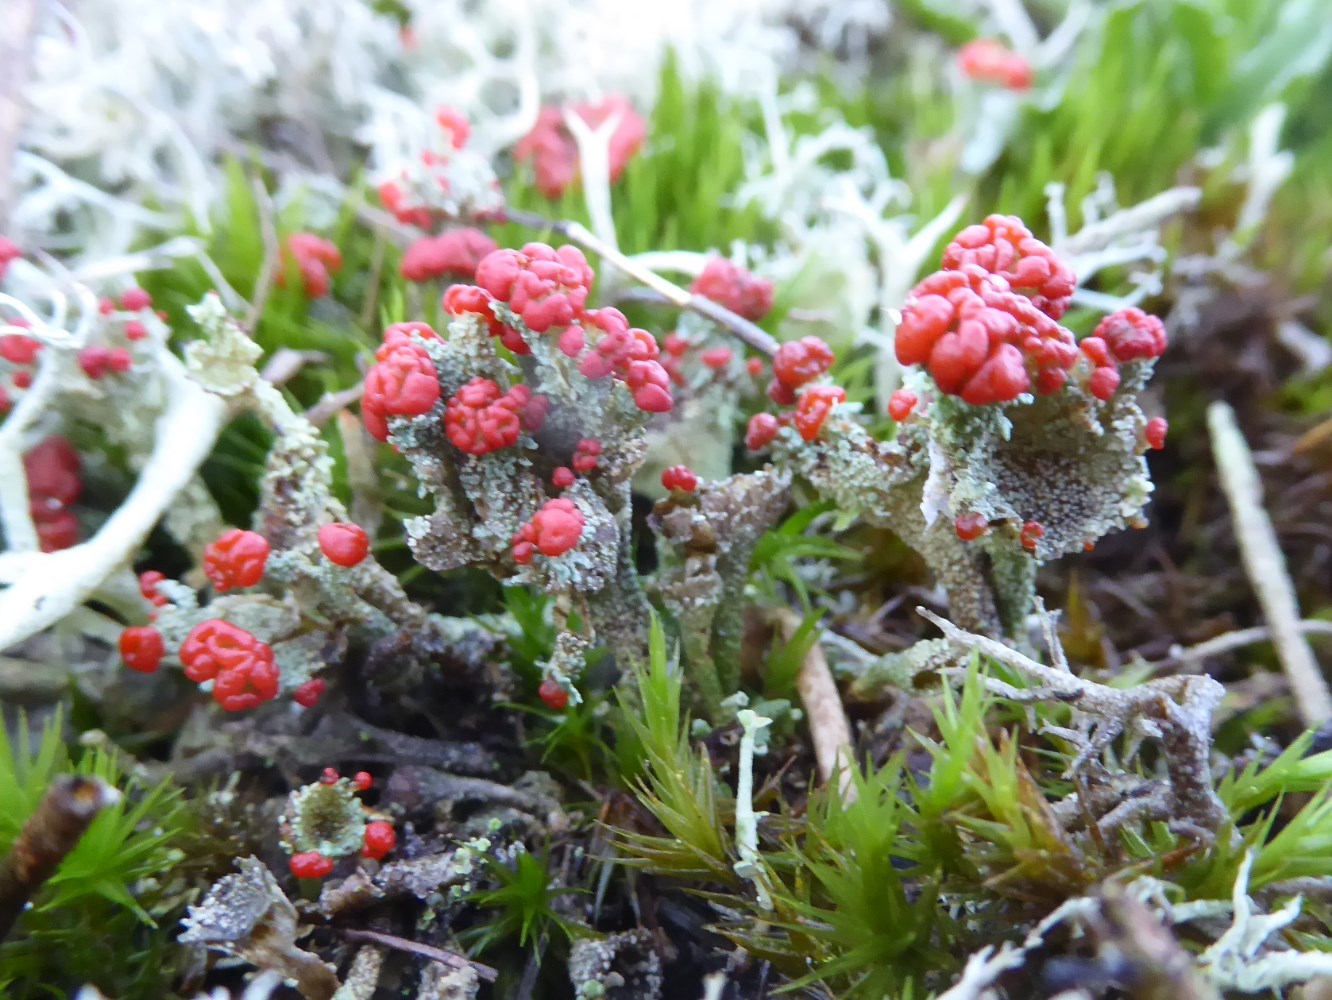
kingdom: Fungi
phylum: Ascomycota
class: Lecanoromycetes
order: Lecanorales
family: Cladoniaceae
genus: Cladonia
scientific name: Cladonia diversa
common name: rød bægerlav
